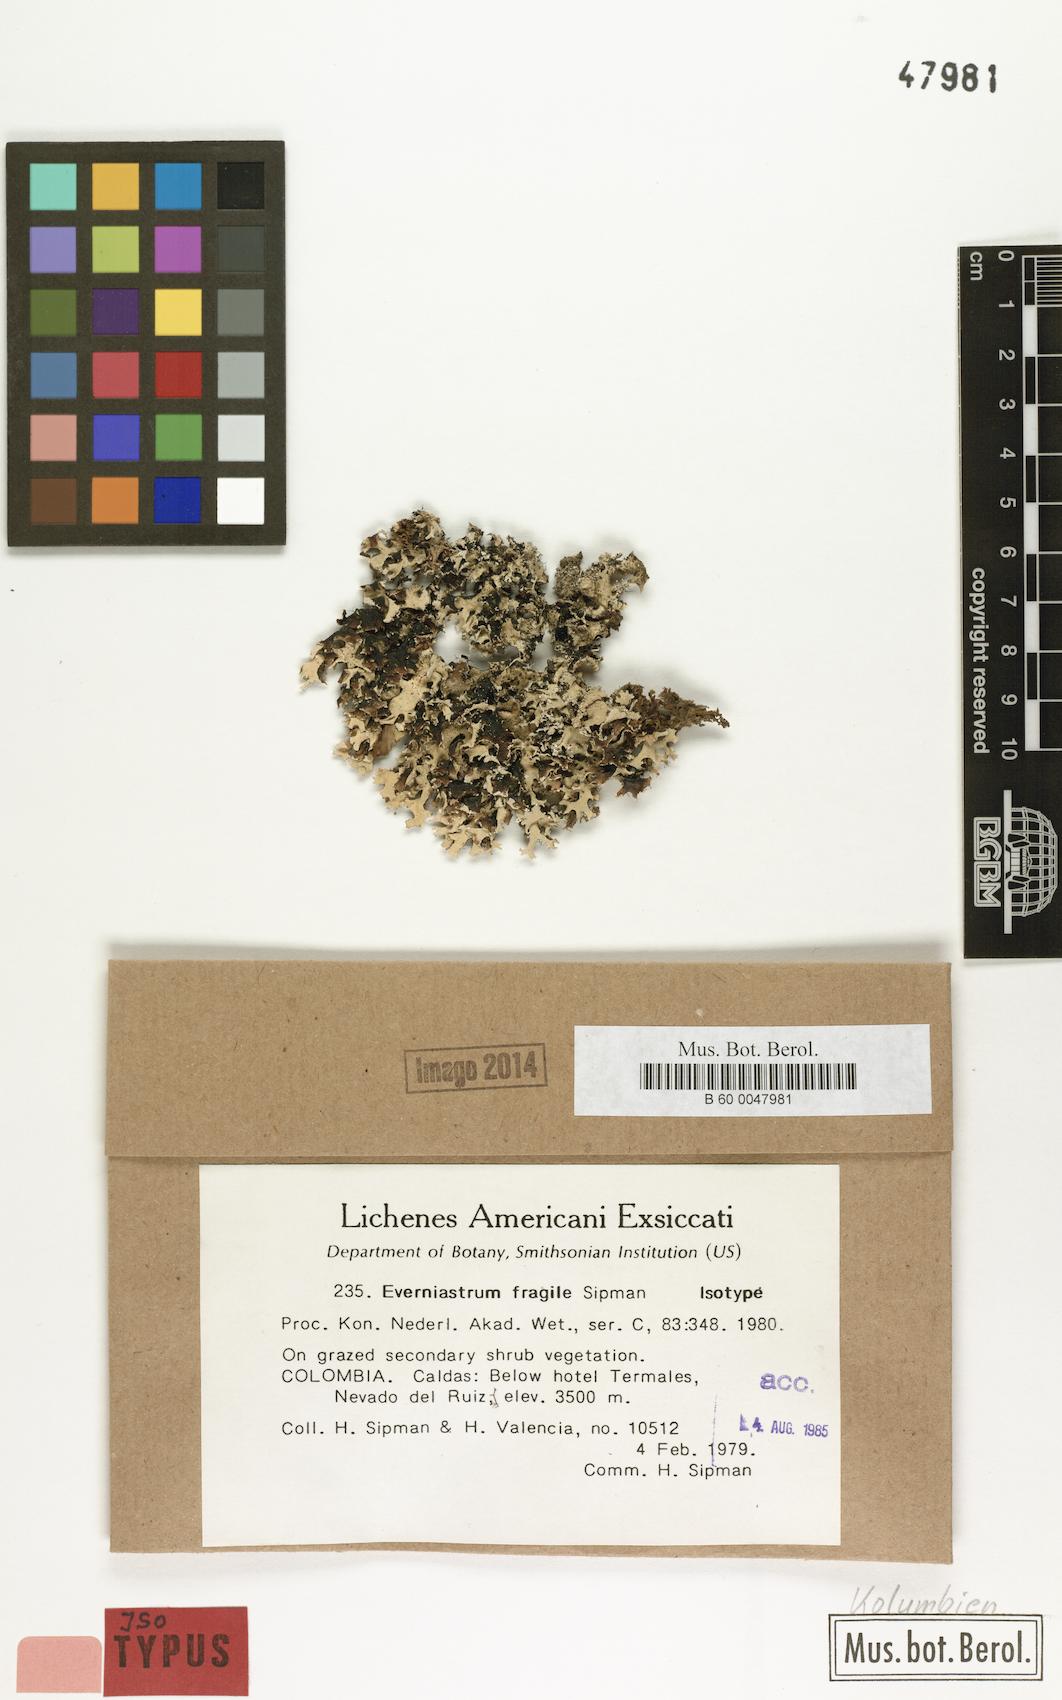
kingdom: Fungi
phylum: Ascomycota
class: Lecanoromycetes
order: Lecanorales
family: Parmeliaceae
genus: Hypotrachyna
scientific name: Hypotrachyna fragilis
